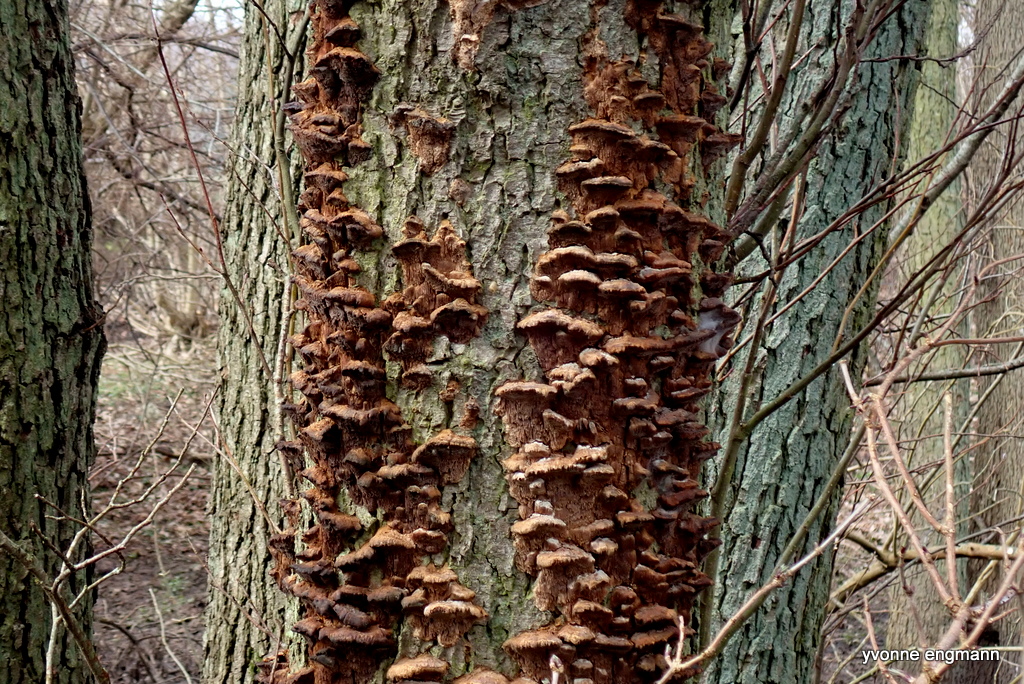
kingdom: Fungi
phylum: Basidiomycota
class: Agaricomycetes
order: Hymenochaetales
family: Hymenochaetaceae
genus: Xanthoporia
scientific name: Xanthoporia radiata
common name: elle-spejlporesvamp
